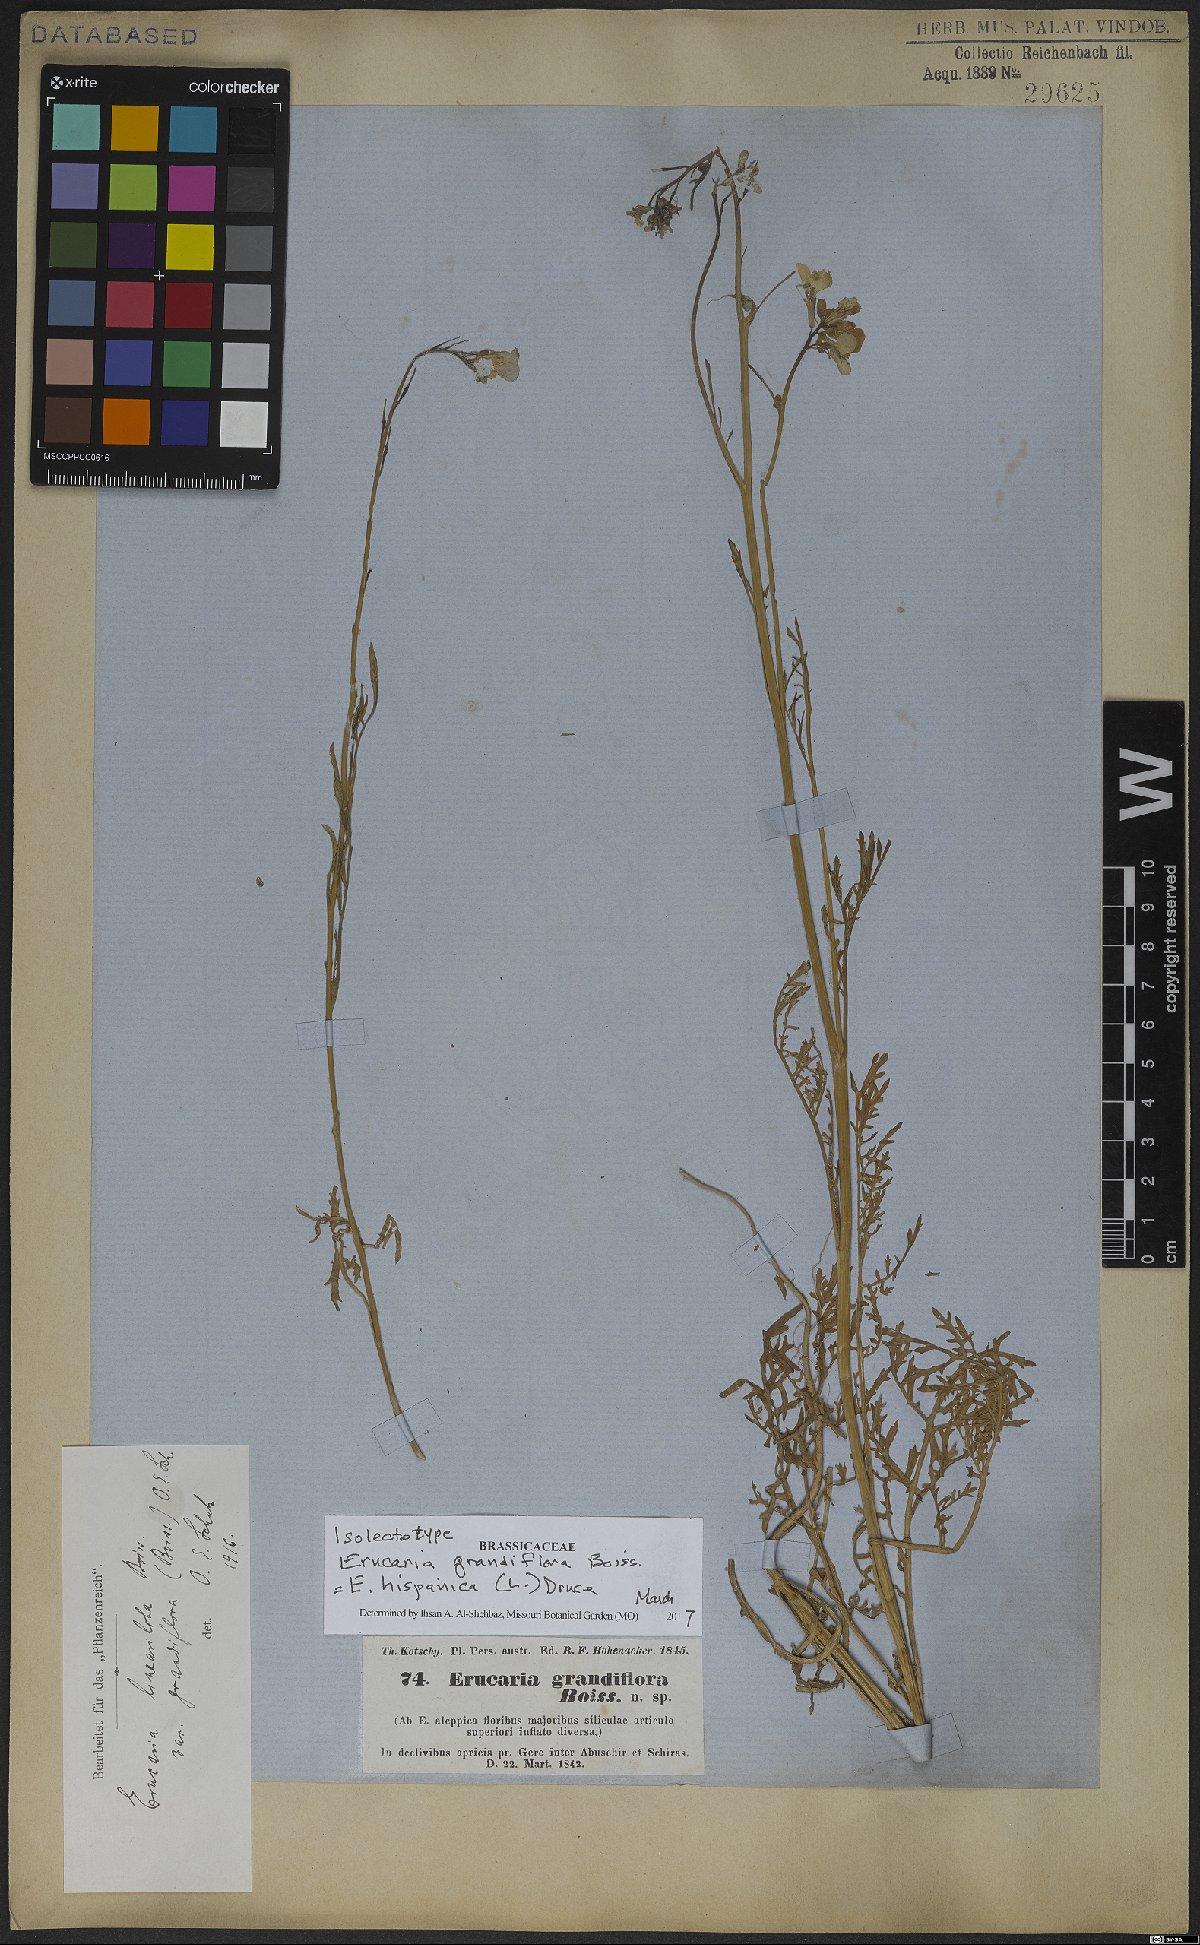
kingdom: Plantae
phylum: Tracheophyta
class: Magnoliopsida
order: Brassicales
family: Brassicaceae
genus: Erucaria
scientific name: Erucaria hispanica
